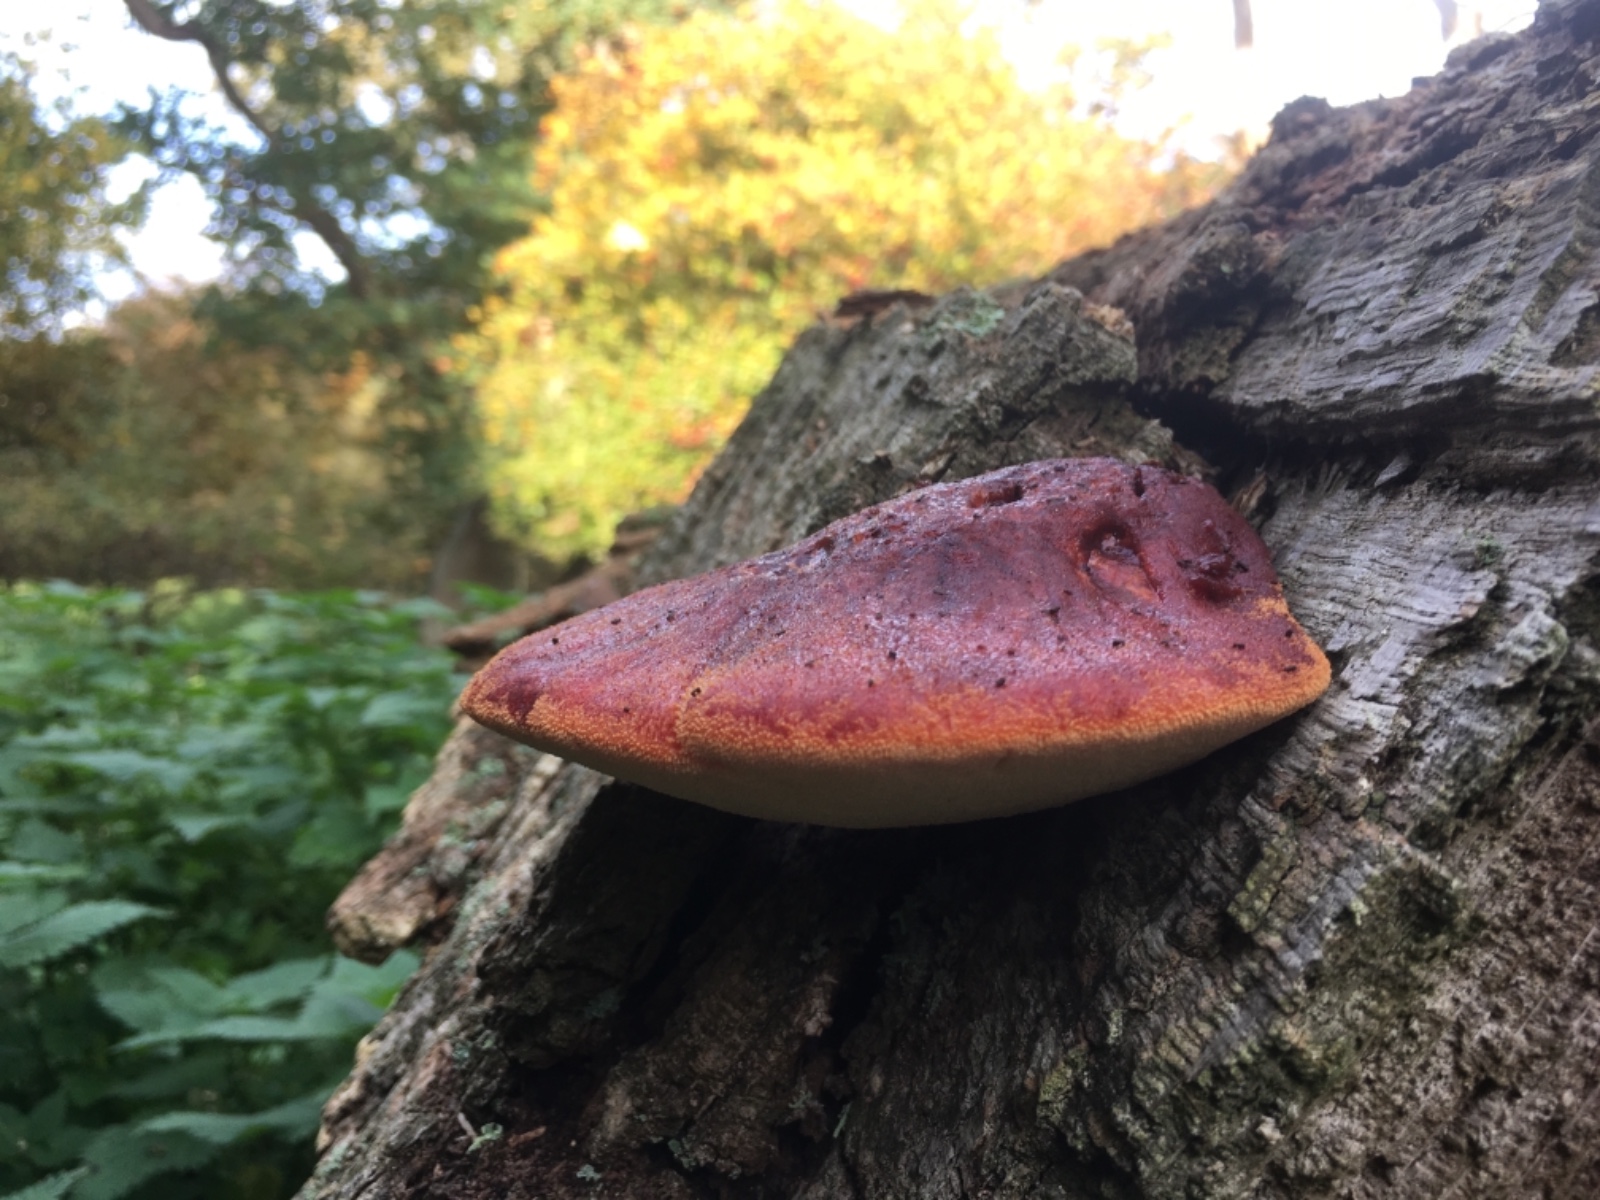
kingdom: Fungi
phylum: Basidiomycota
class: Agaricomycetes
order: Agaricales
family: Fistulinaceae
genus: Fistulina
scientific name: Fistulina hepatica
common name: oksetunge
